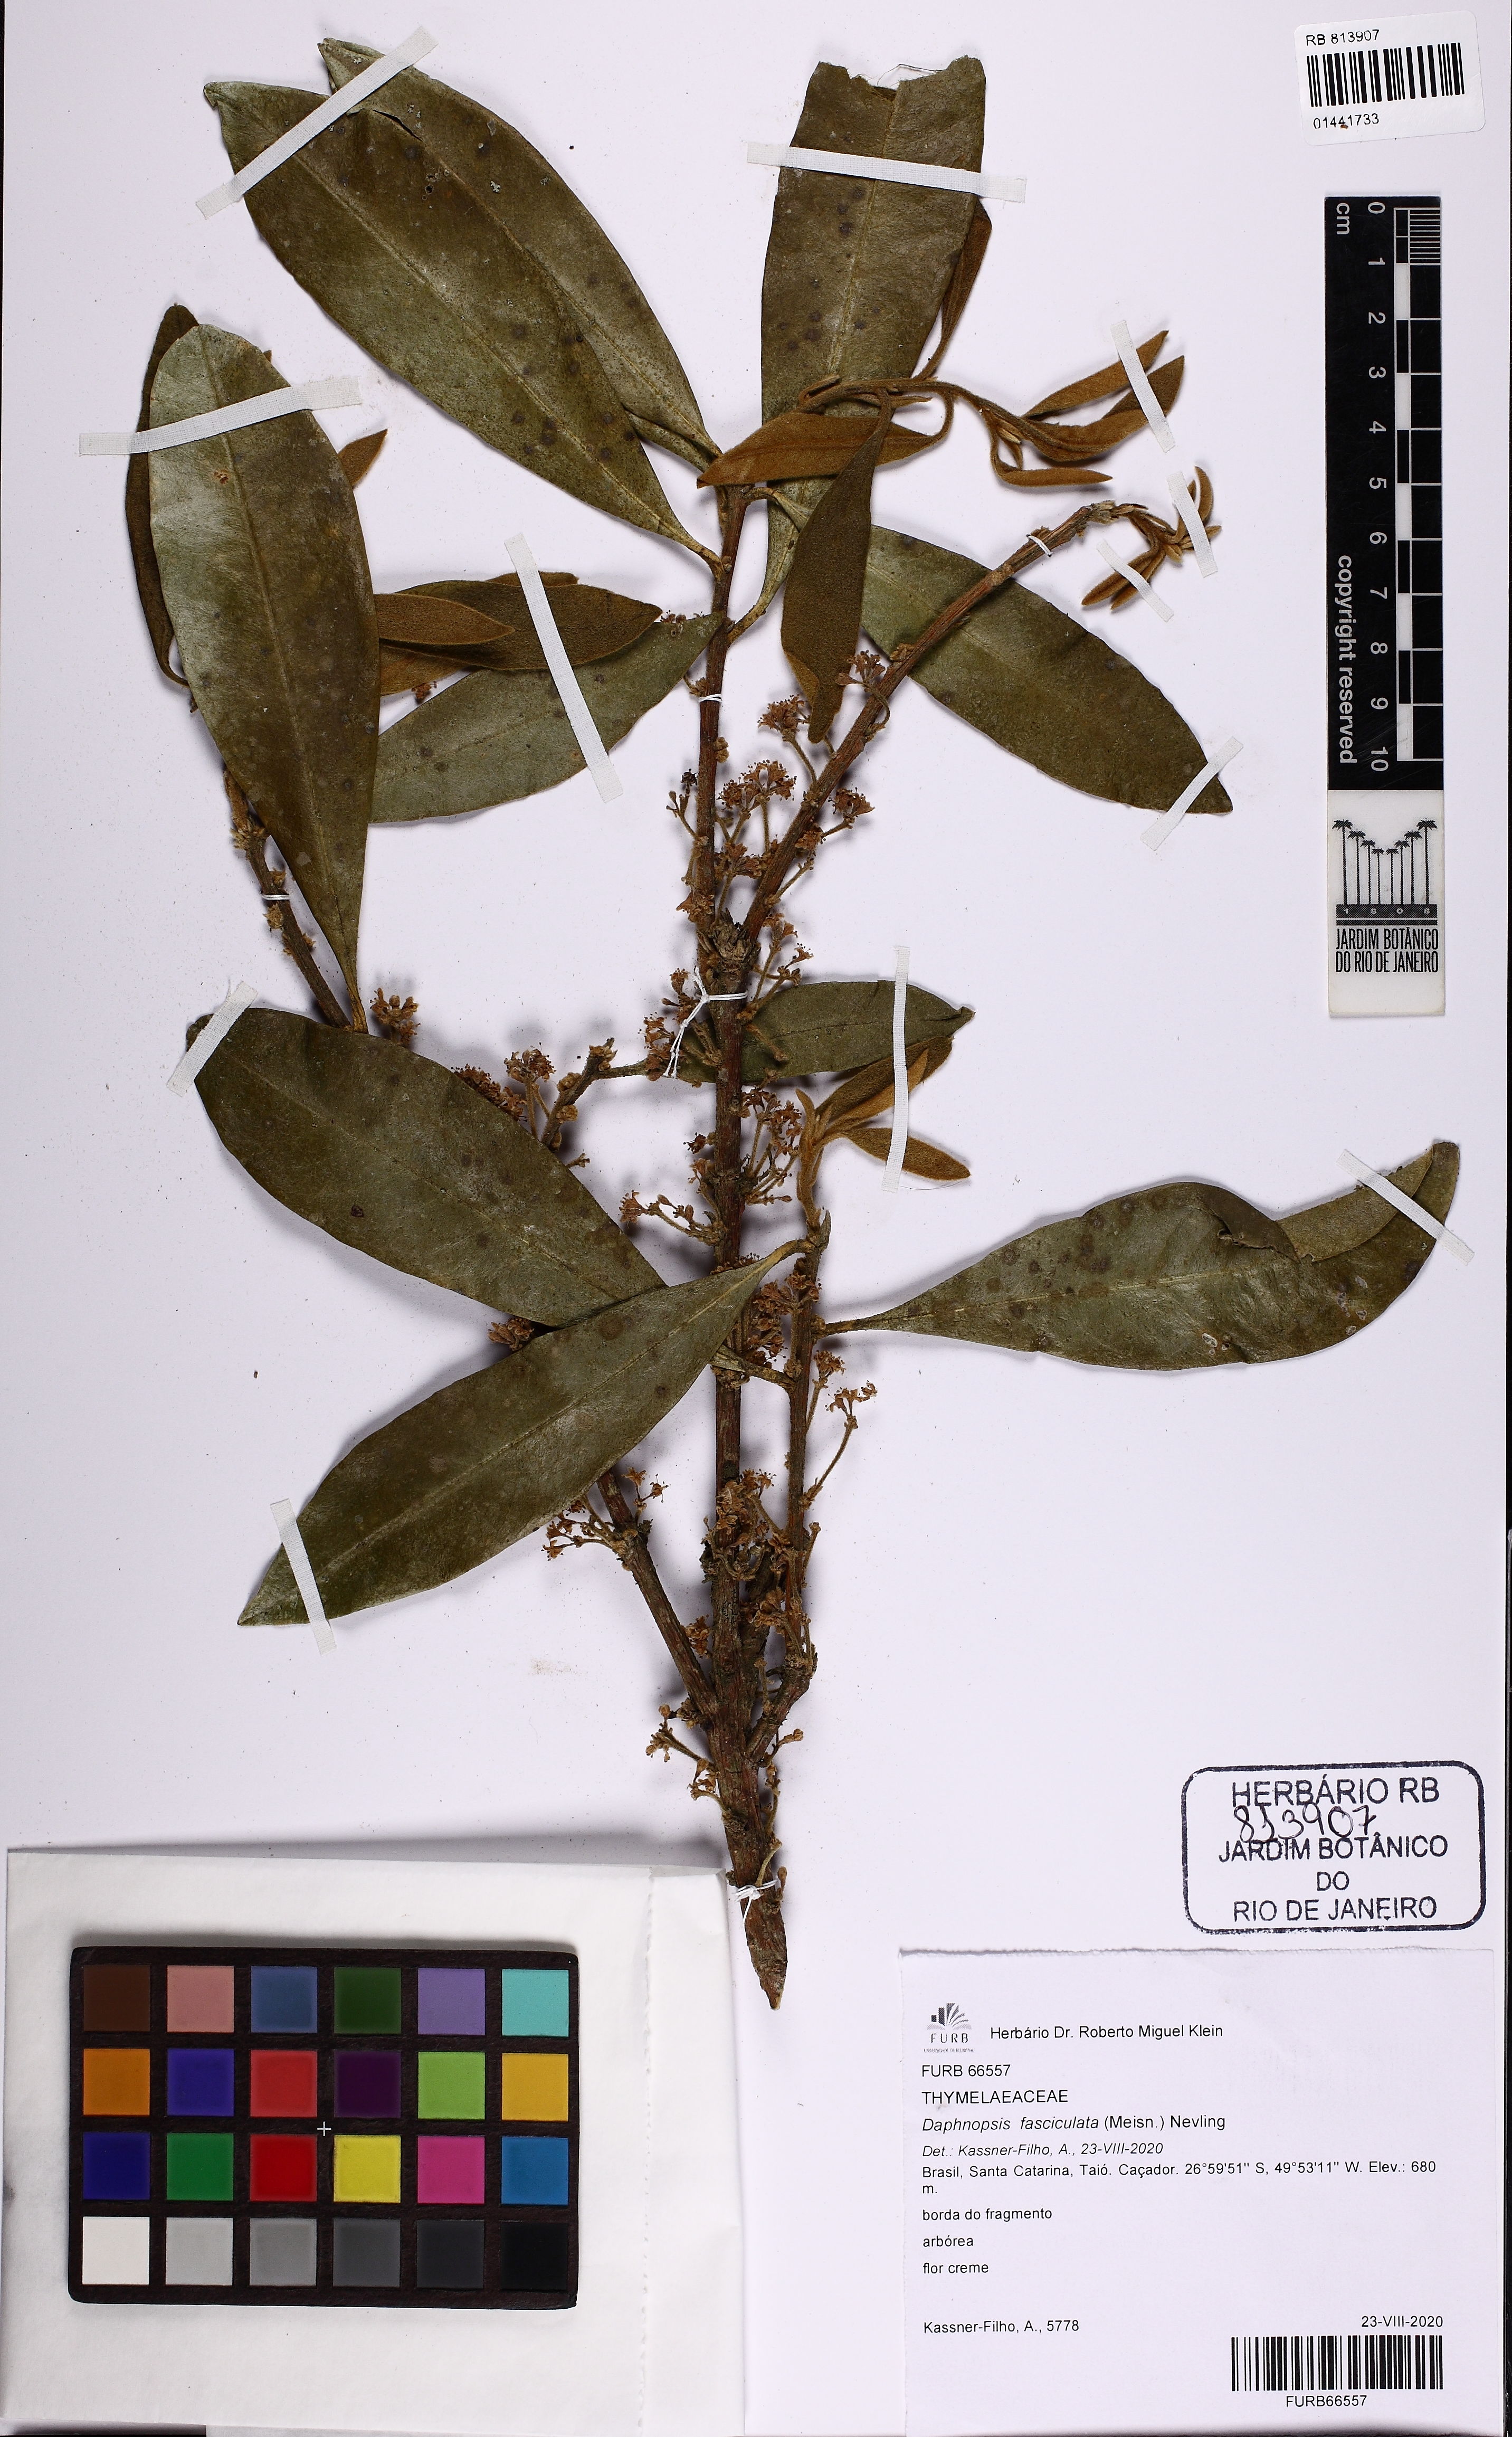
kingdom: Plantae
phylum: Tracheophyta
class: Magnoliopsida
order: Malvales
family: Thymelaeaceae
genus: Daphnopsis
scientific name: Daphnopsis fasciculata
